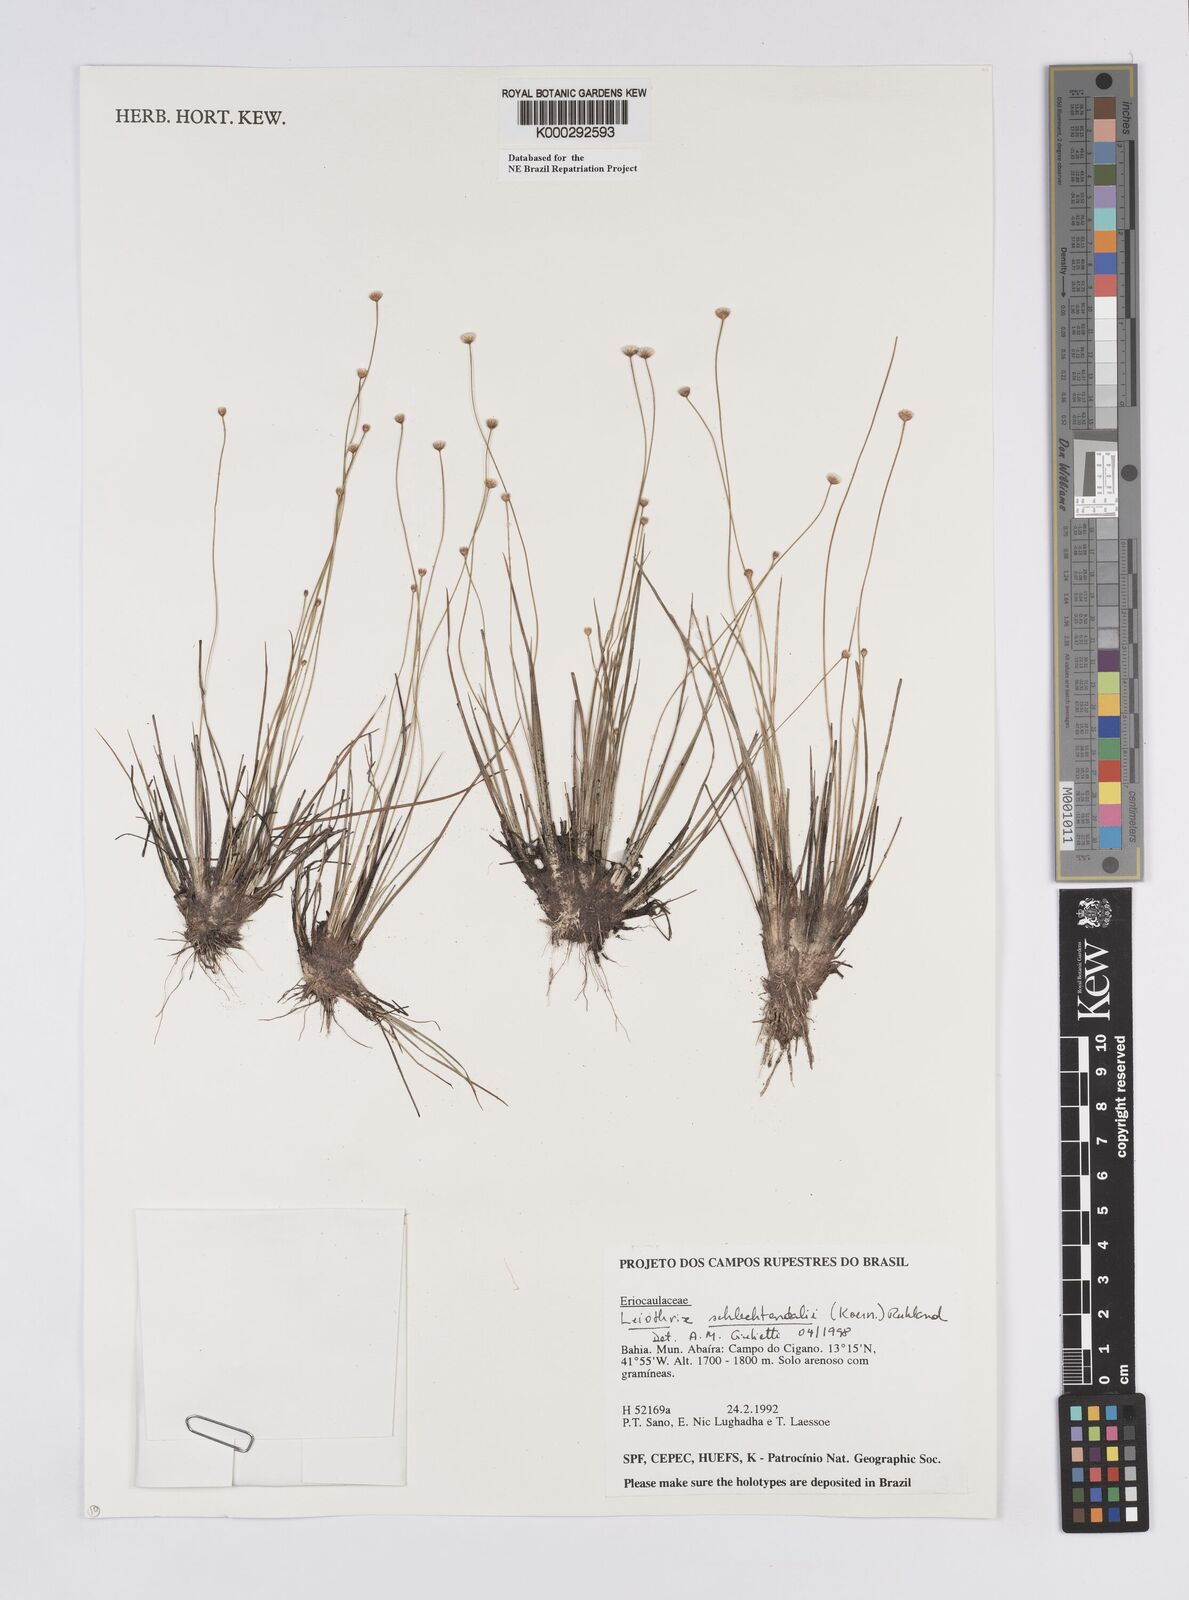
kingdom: Plantae
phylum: Tracheophyta
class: Liliopsida
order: Poales
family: Eriocaulaceae
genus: Leiothrix
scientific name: Leiothrix schlechtendalii
